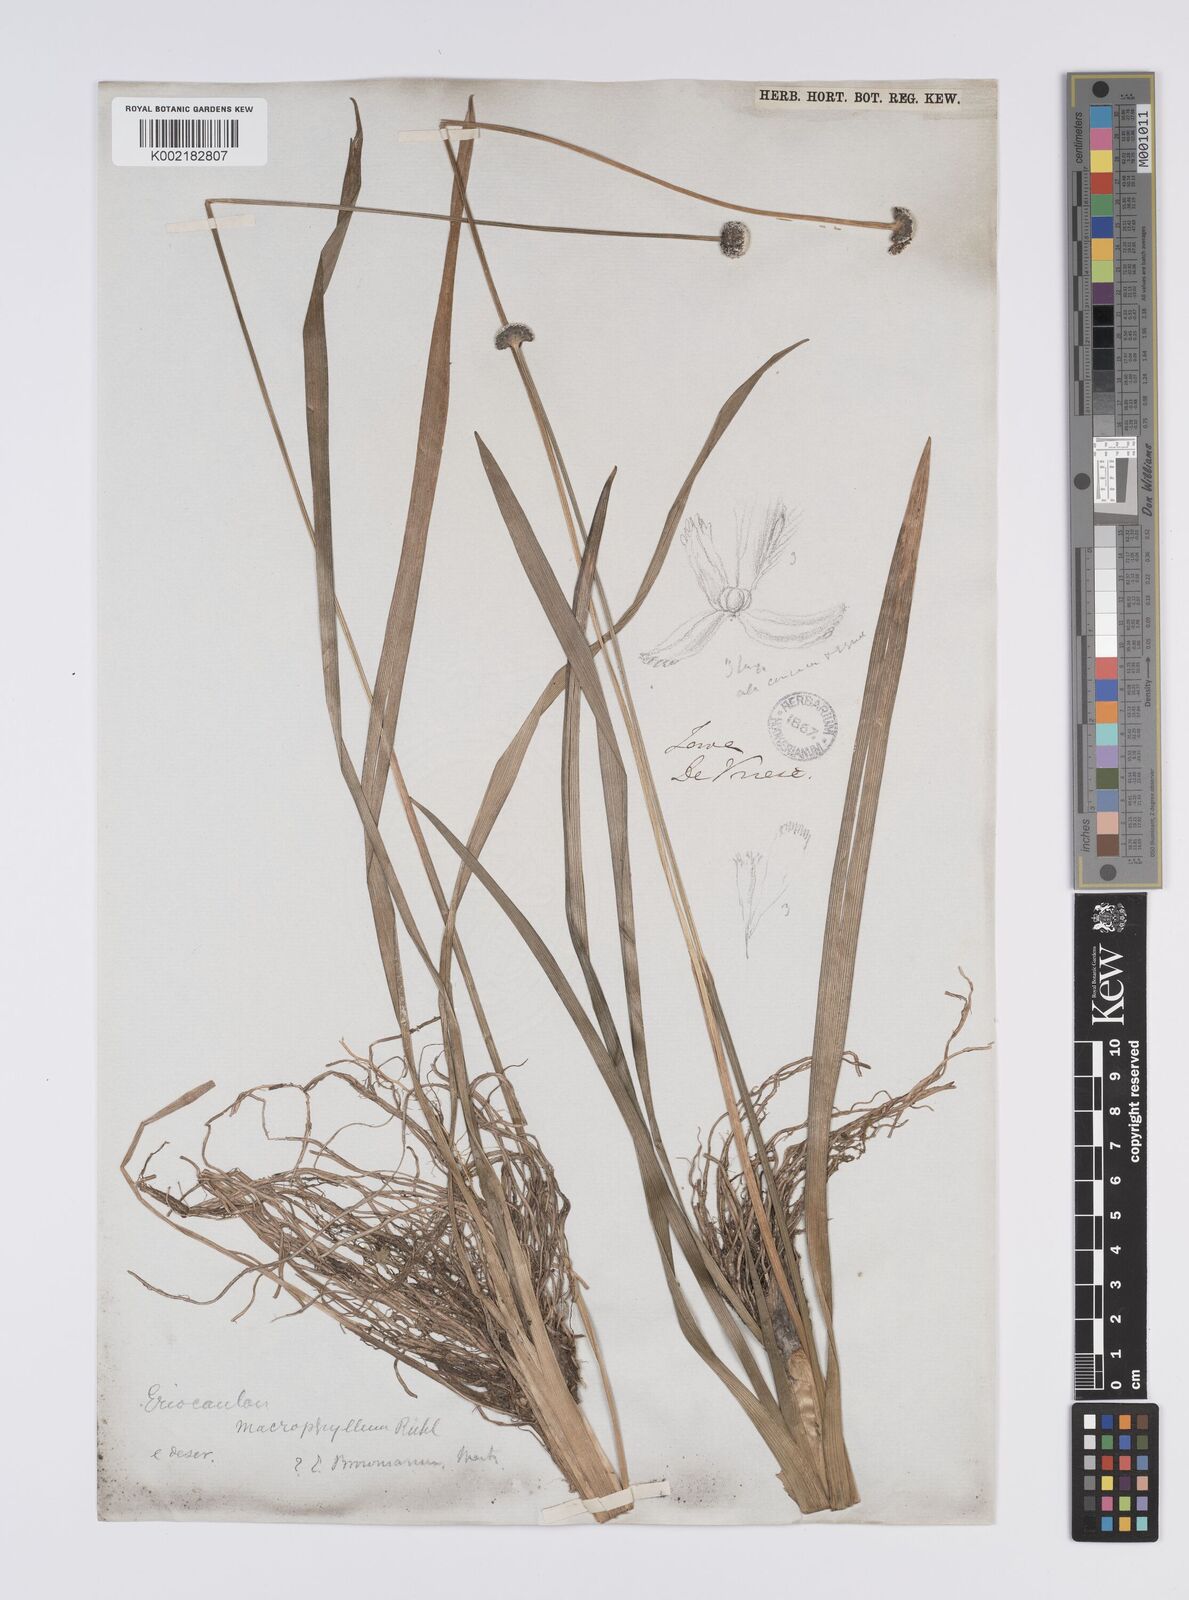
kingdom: Plantae
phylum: Tracheophyta
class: Liliopsida
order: Poales
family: Eriocaulaceae
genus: Eriocaulon
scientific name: Eriocaulon brownianum
